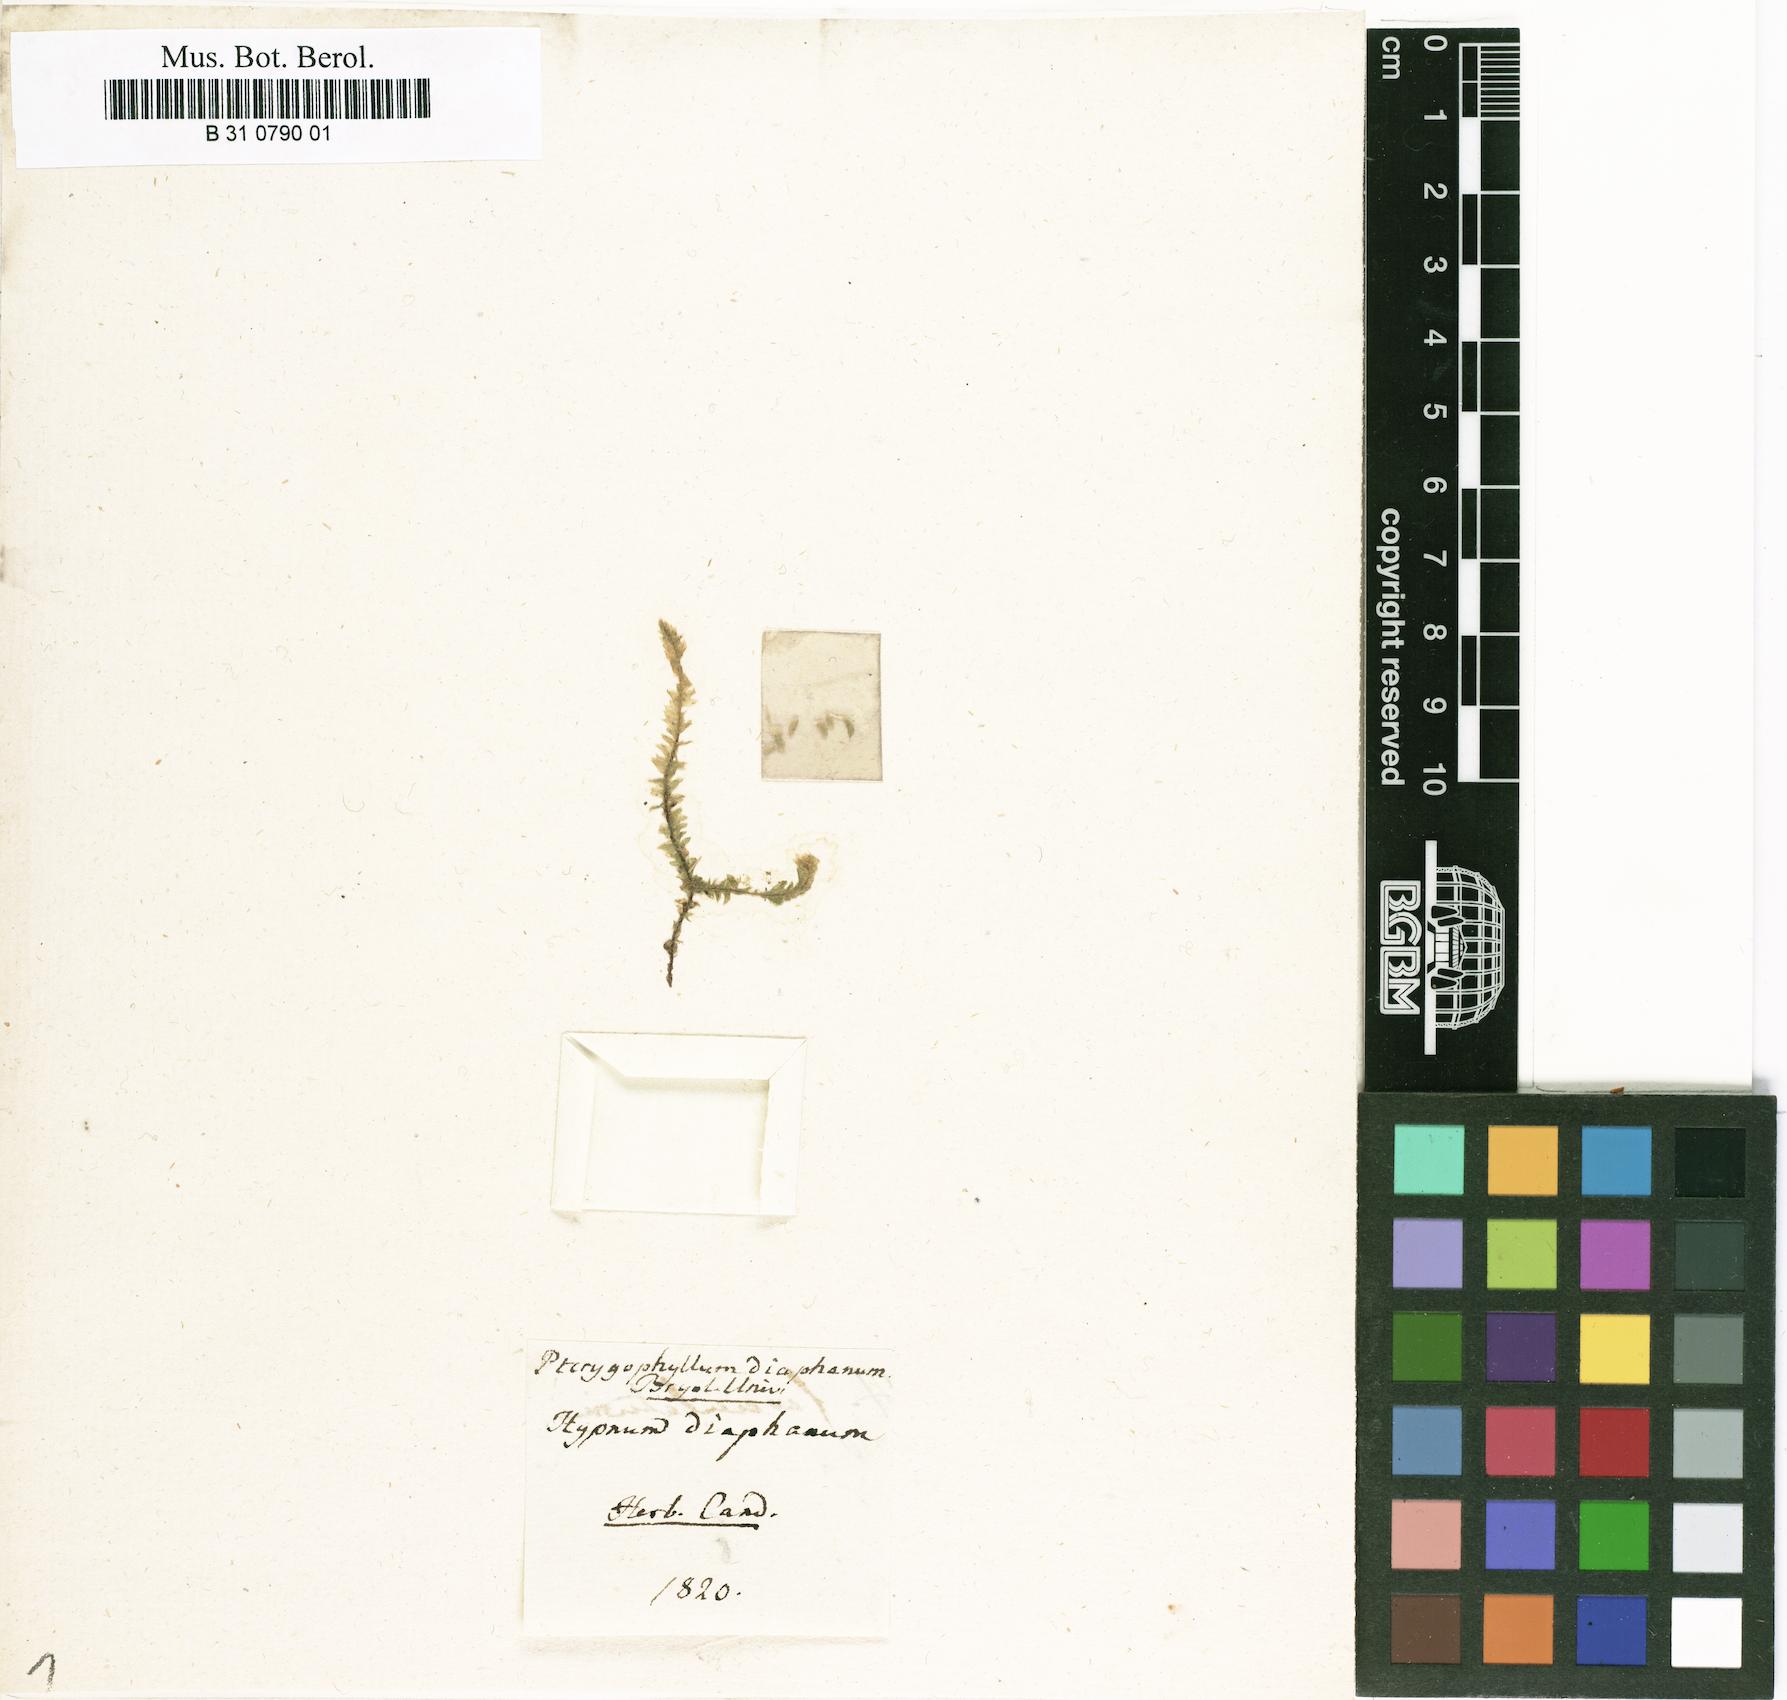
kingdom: Plantae
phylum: Bryophyta
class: Bryopsida
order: Hookeriales
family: Pilotrichaceae
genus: Lepidopilum
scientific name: Lepidopilum diaphanum
